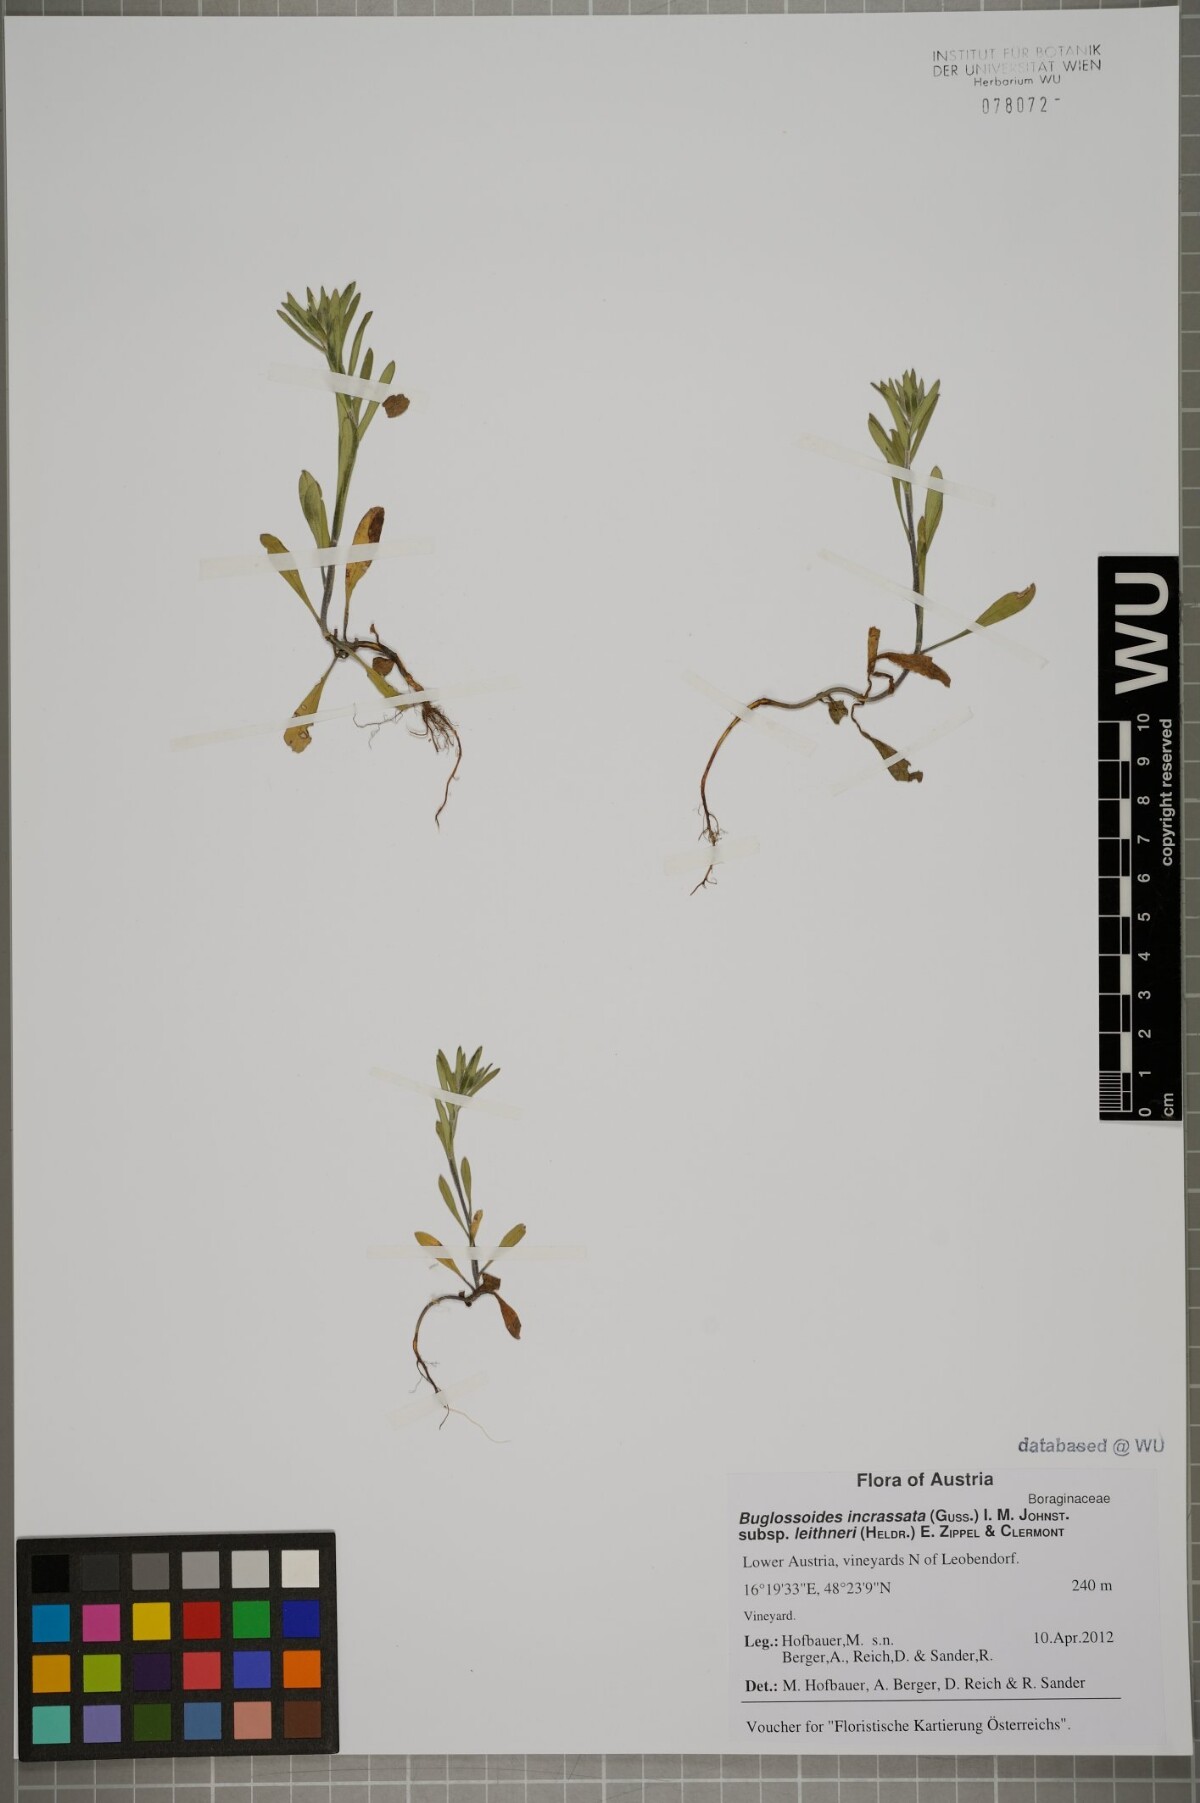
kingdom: Plantae
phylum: Tracheophyta
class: Magnoliopsida
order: Boraginales
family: Boraginaceae
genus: Buglossoides
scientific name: Buglossoides incrassata
